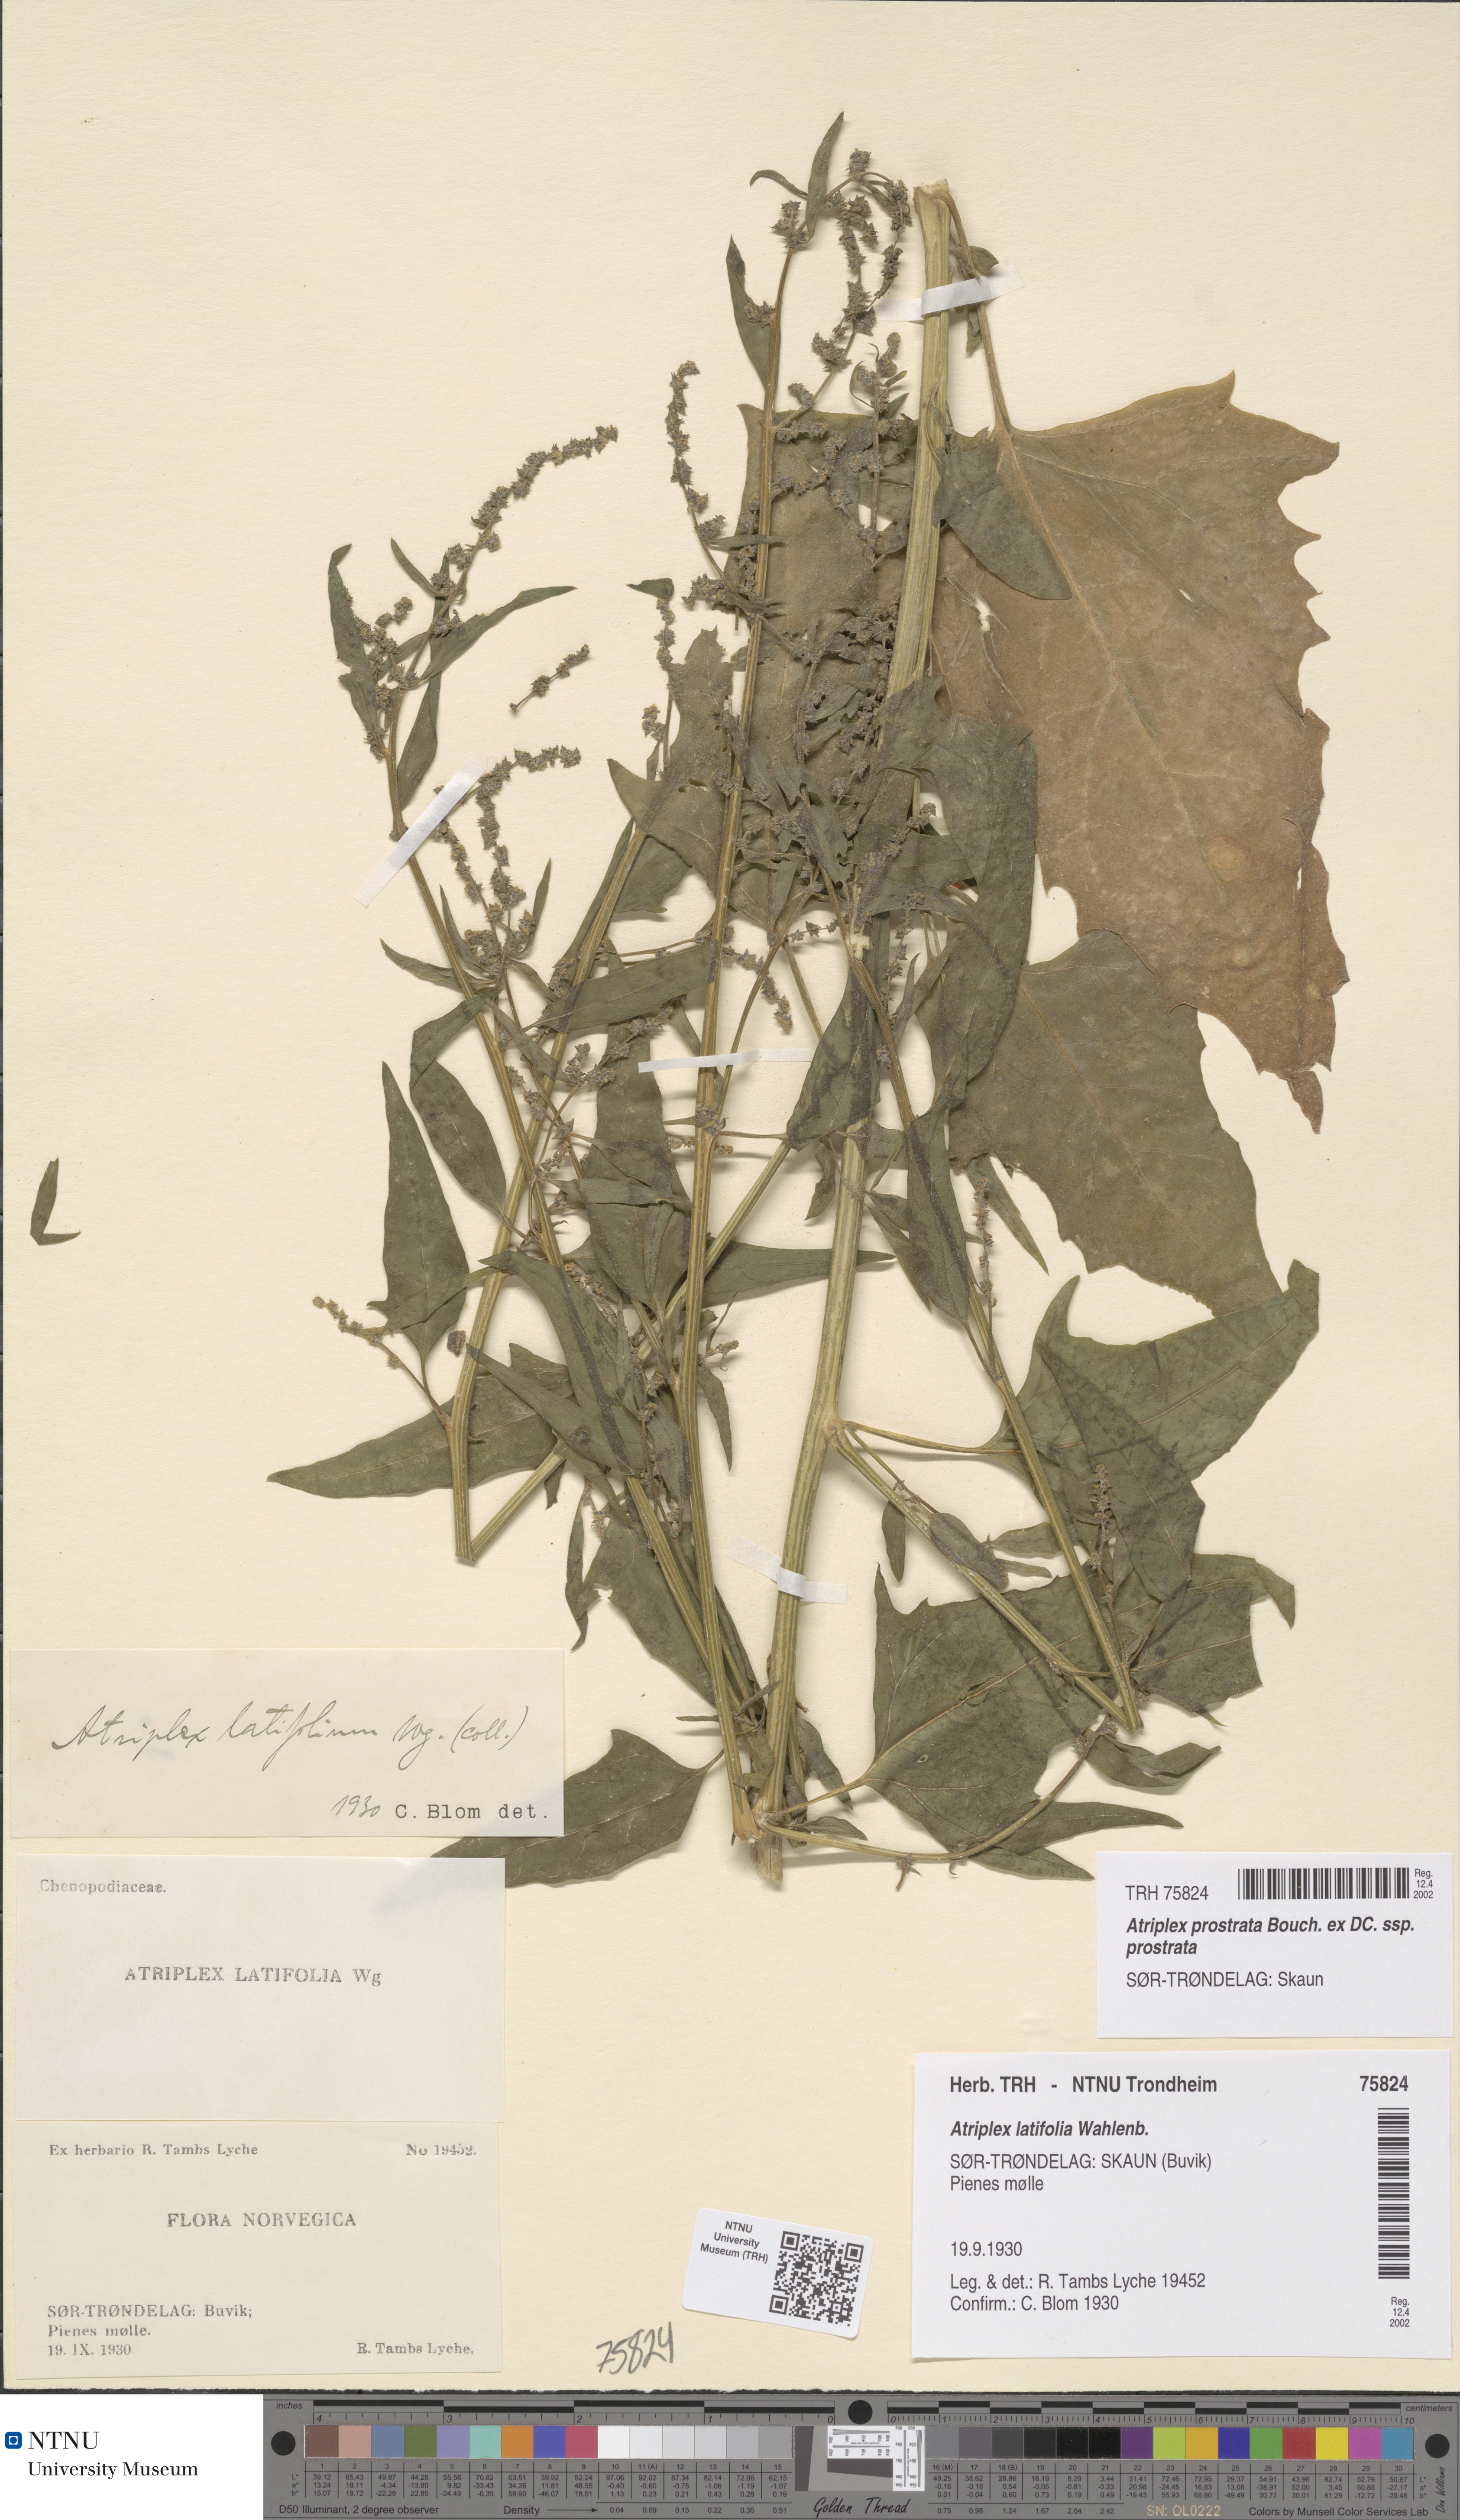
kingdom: Plantae
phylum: Tracheophyta
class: Magnoliopsida
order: Caryophyllales
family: Amaranthaceae
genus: Atriplex
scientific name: Atriplex prostrata
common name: Spear-leaved orache
